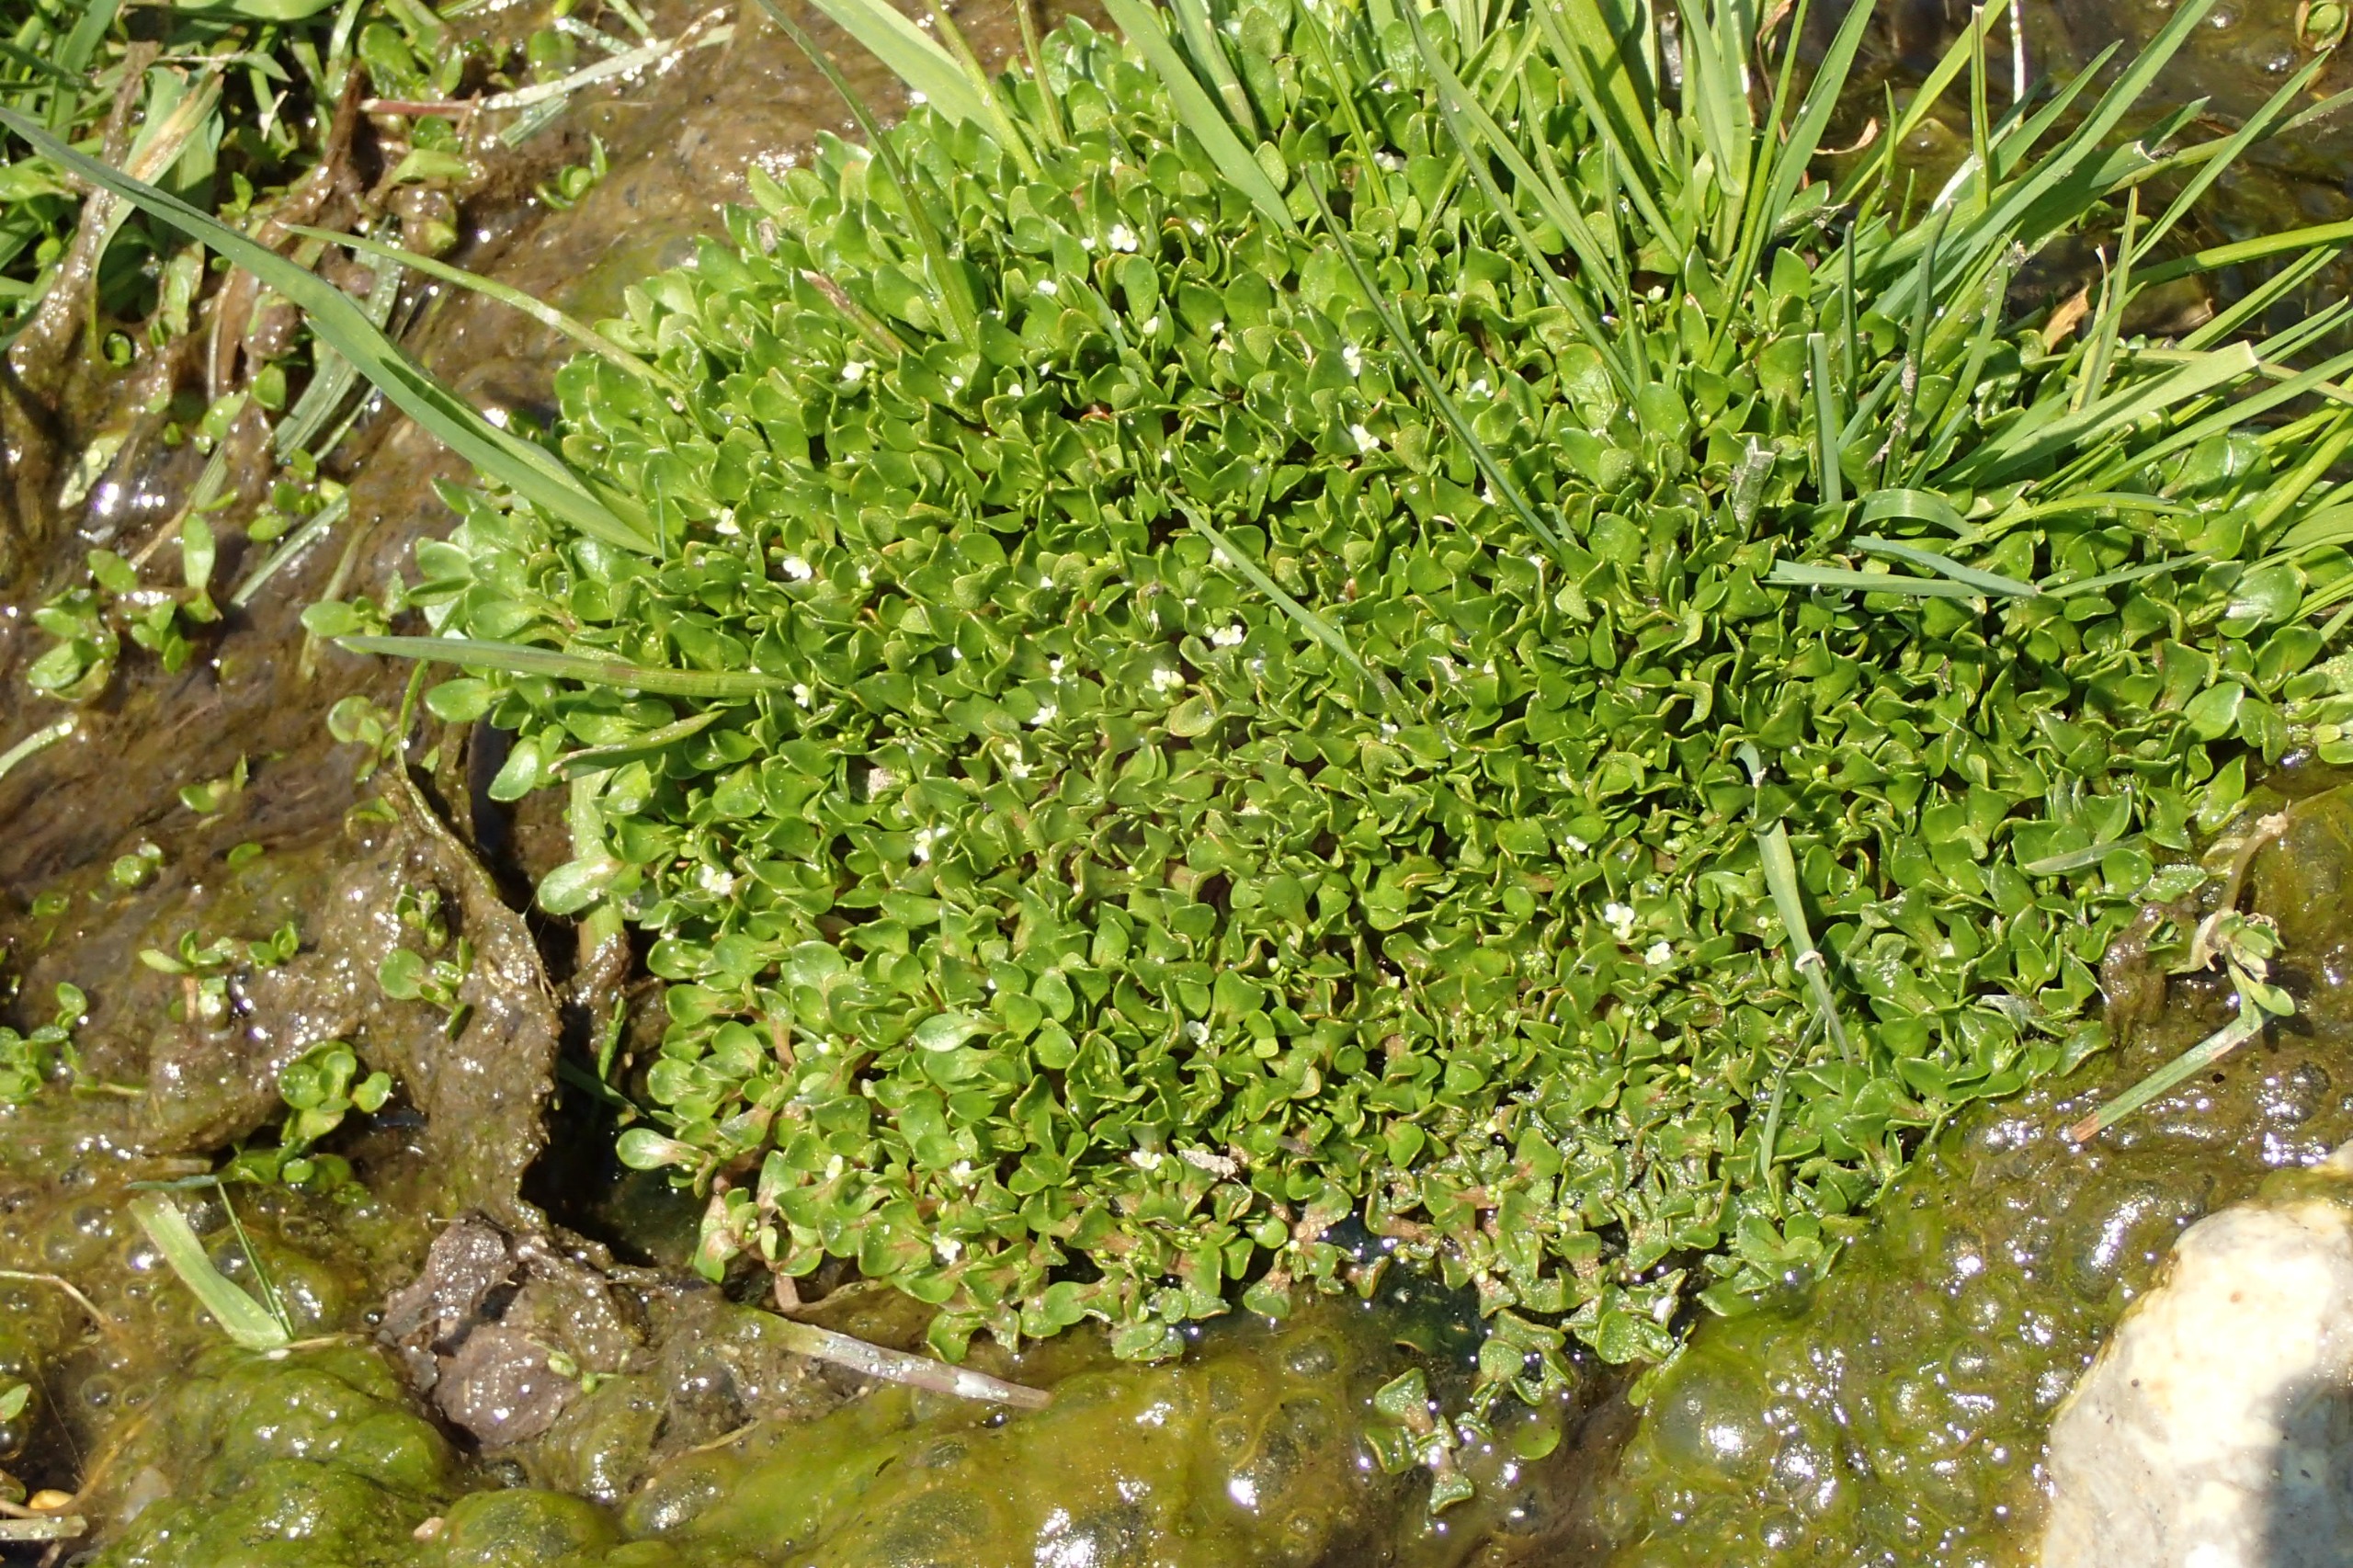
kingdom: Plantae
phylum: Tracheophyta
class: Magnoliopsida
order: Caryophyllales
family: Montiaceae
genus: Montia
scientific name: Montia fontana
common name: Vortet vandarve
